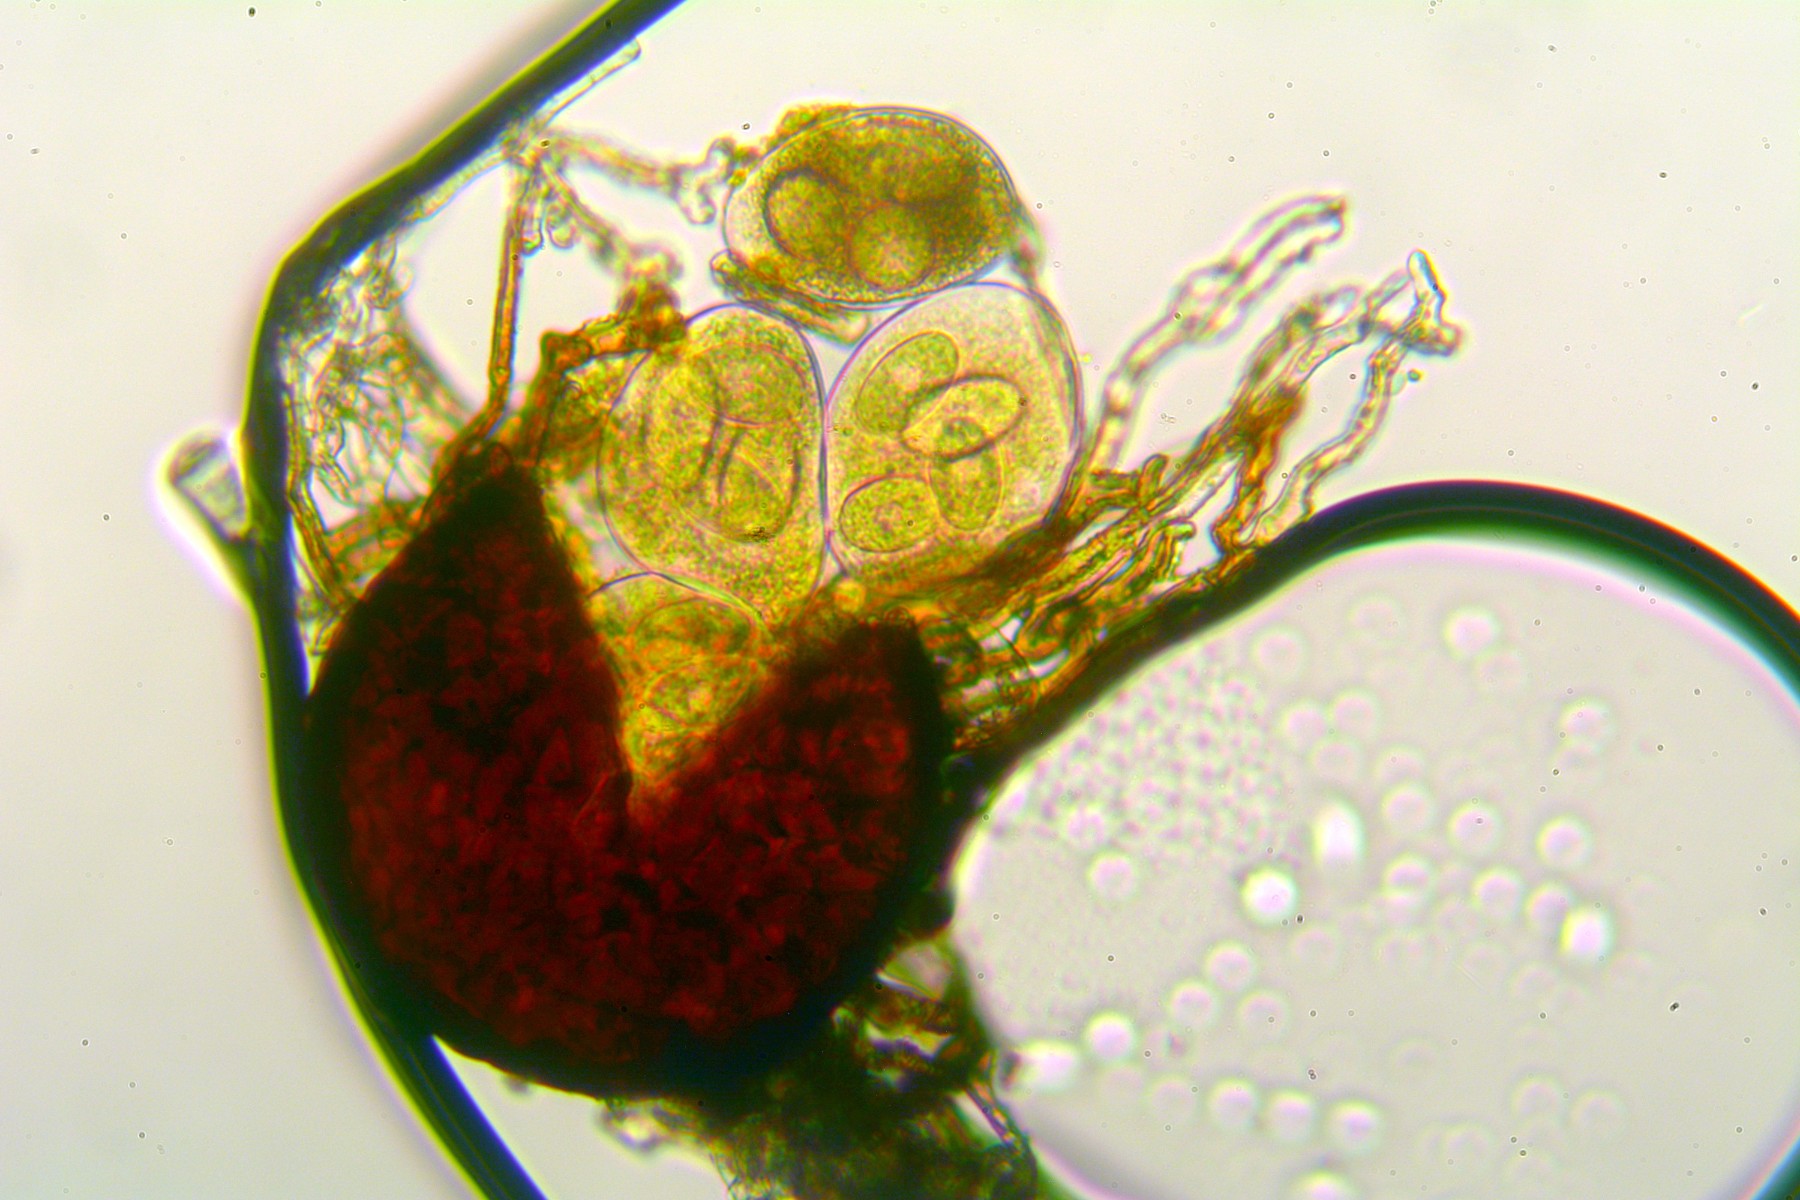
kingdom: Fungi
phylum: Ascomycota
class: Leotiomycetes
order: Helotiales
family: Erysiphaceae
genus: Erysiphe
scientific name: Erysiphe heraclei
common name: skærmplante-meldug
